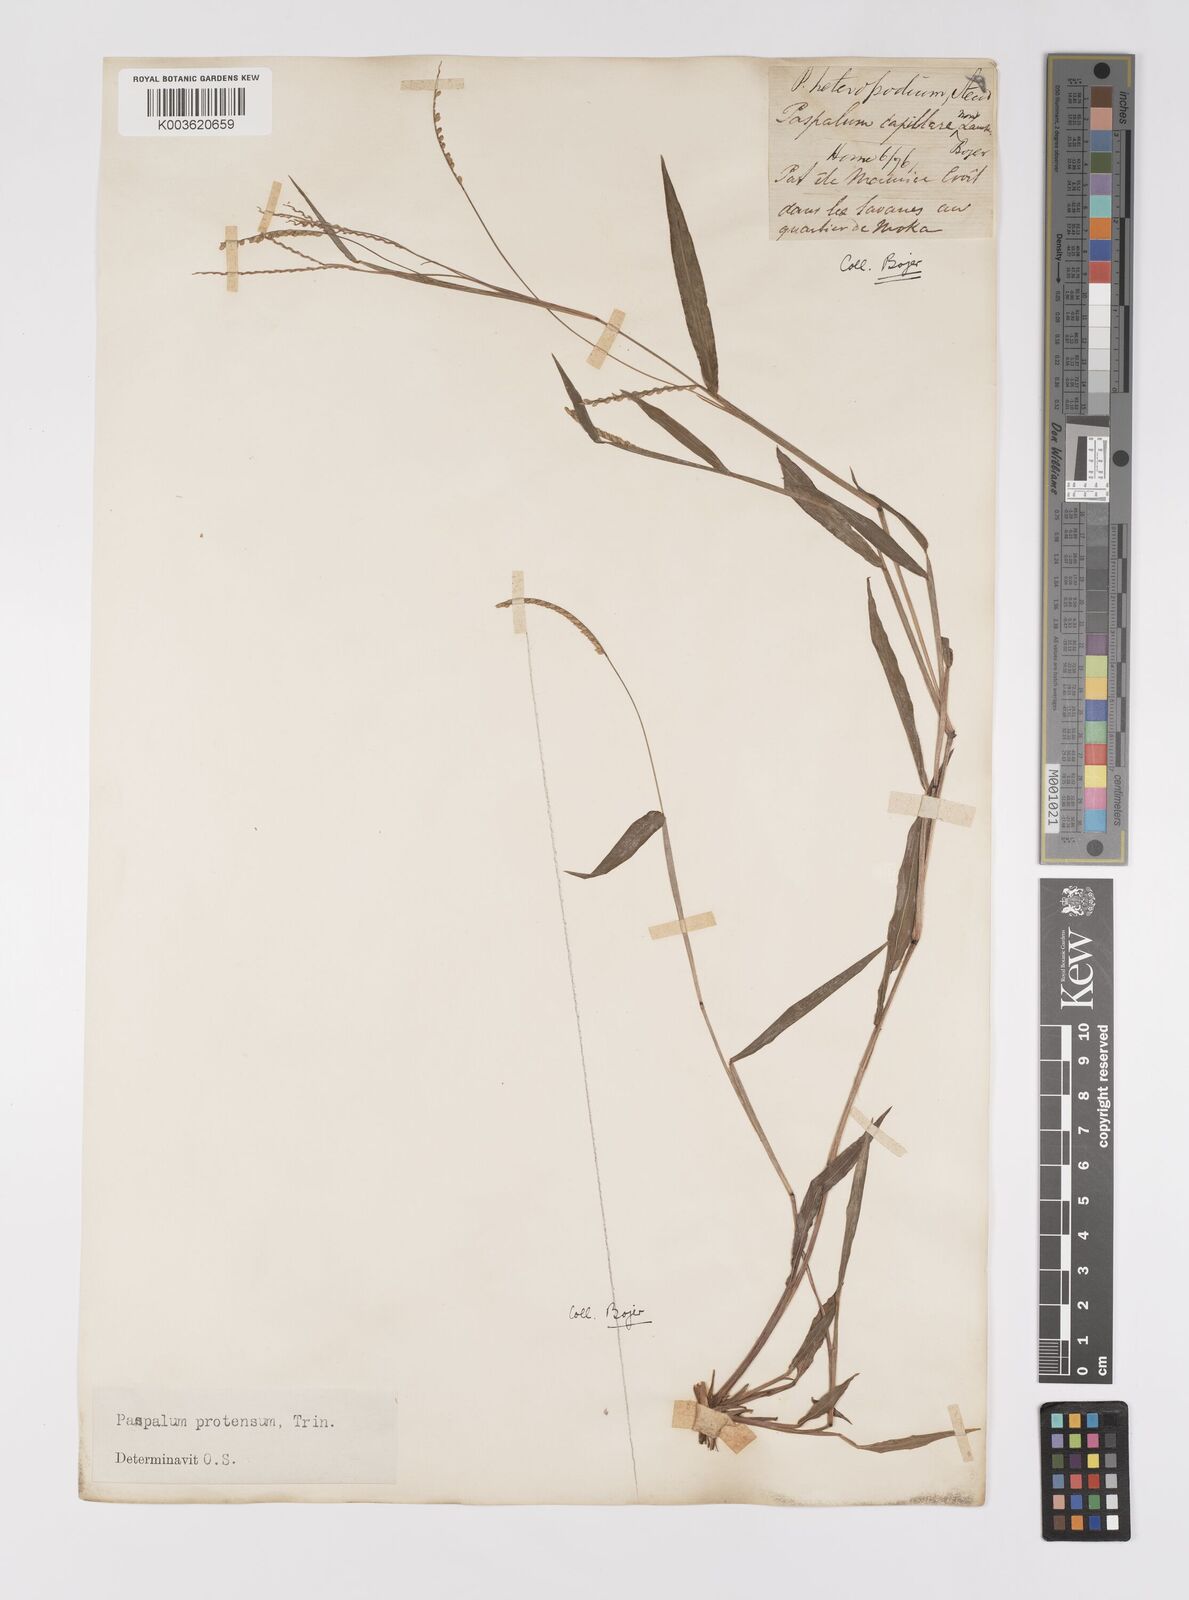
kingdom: Plantae
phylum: Tracheophyta
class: Liliopsida
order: Poales
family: Poaceae
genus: Paspalum
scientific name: Paspalum nutans
